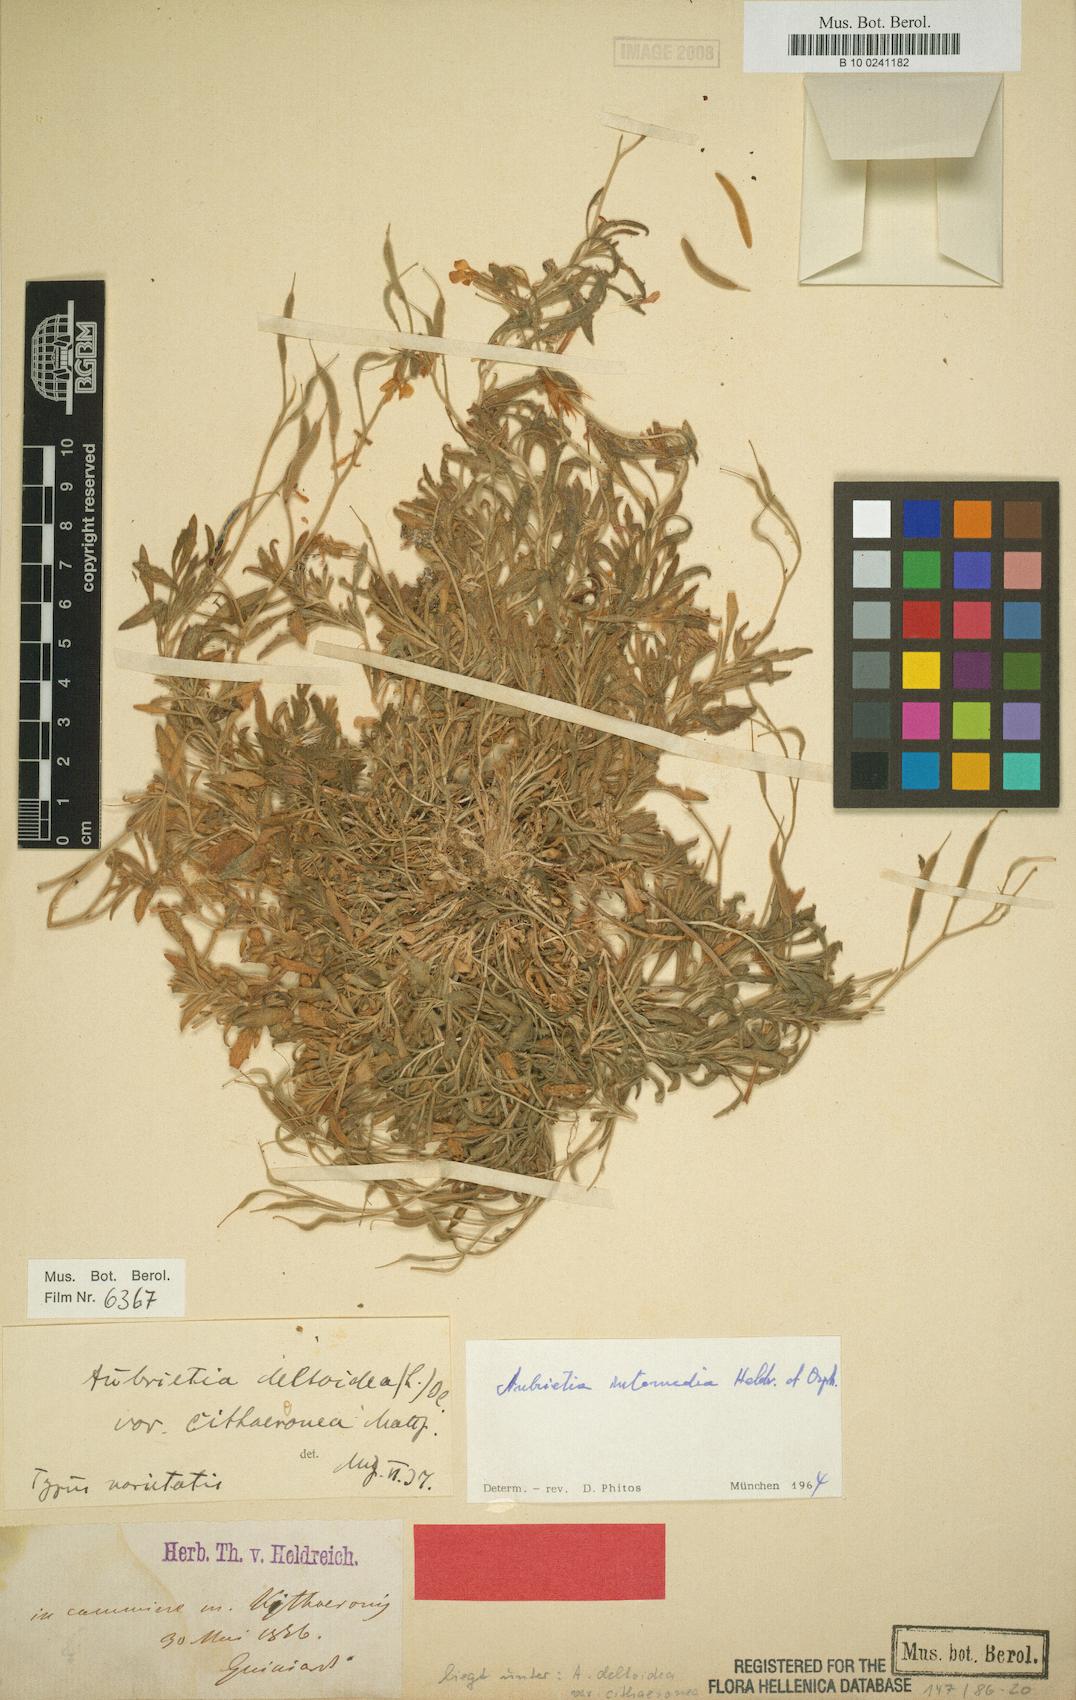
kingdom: Plantae
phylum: Tracheophyta
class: Magnoliopsida
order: Brassicales
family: Brassicaceae
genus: Aubrieta
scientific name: Aubrieta deltoidea
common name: Aubretia
